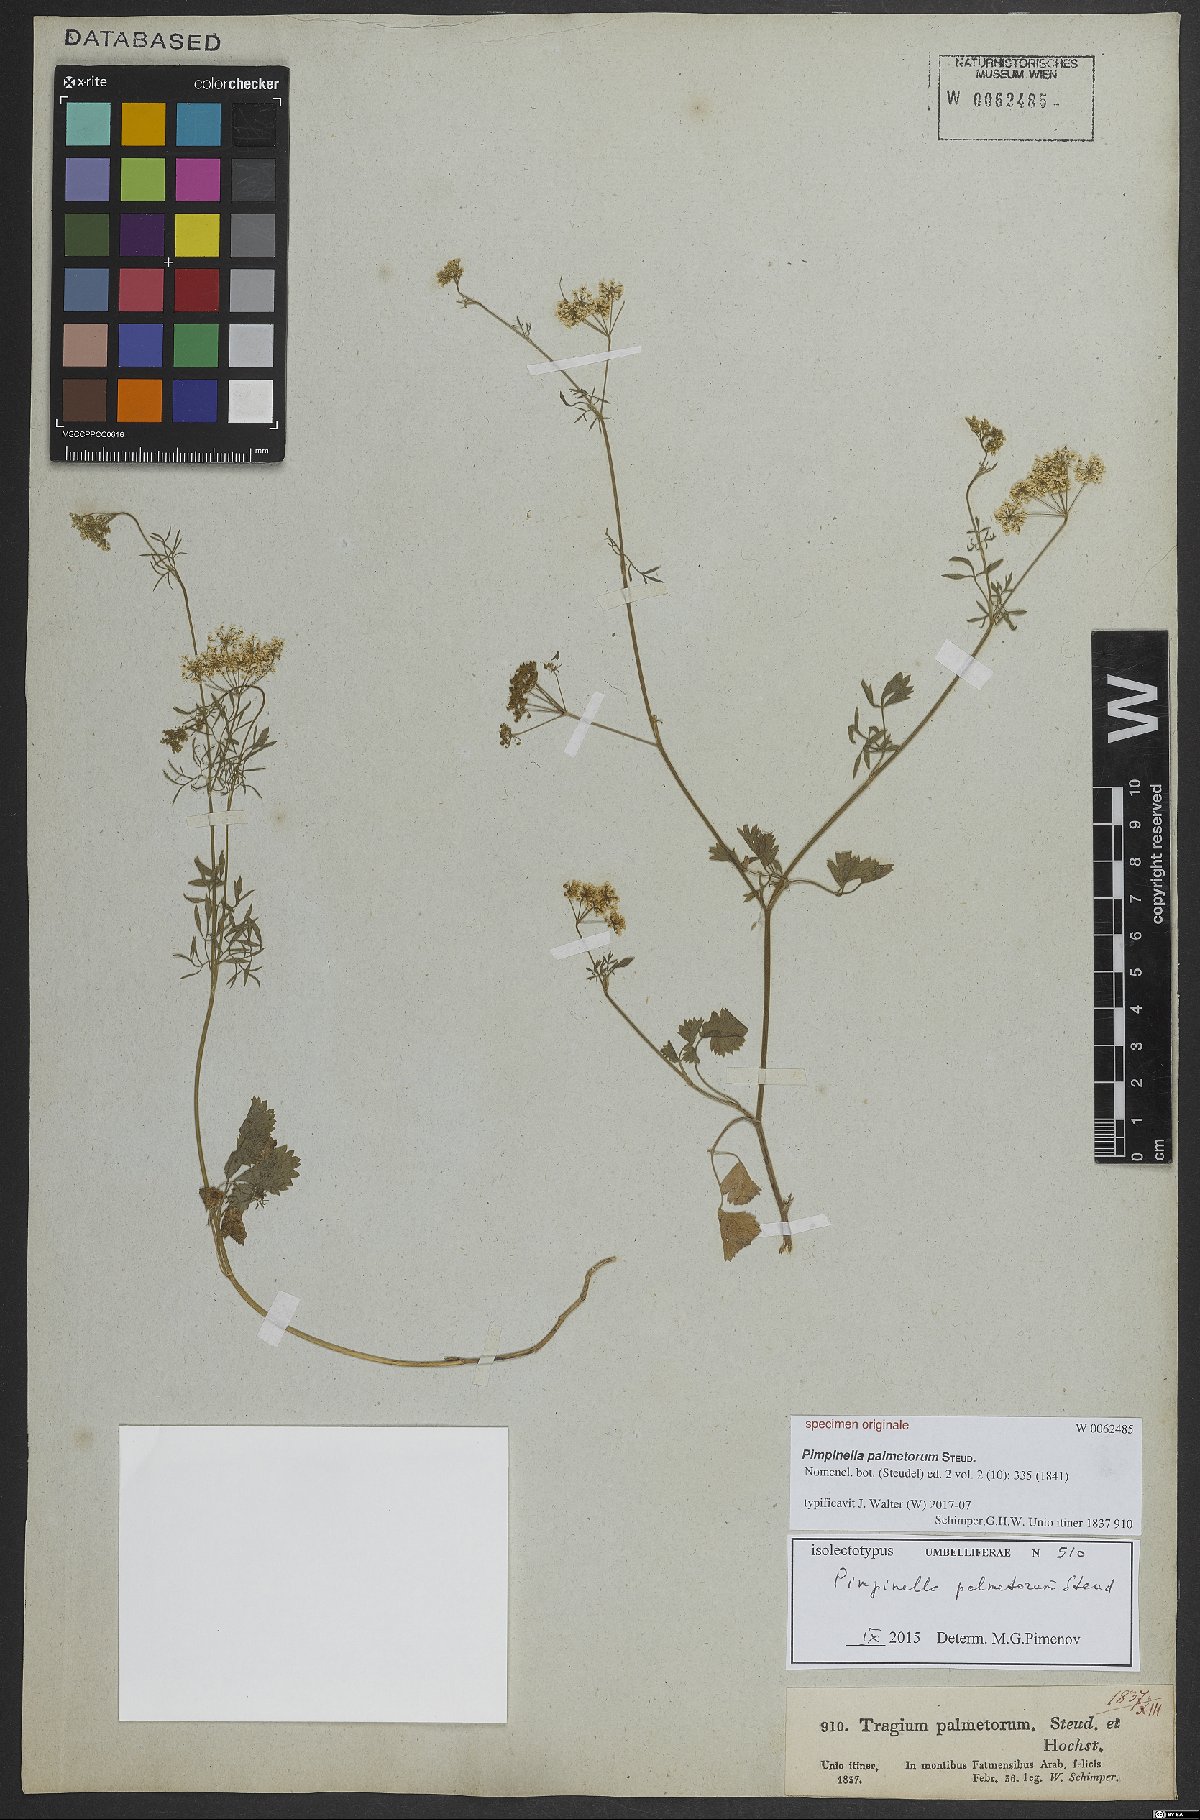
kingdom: Plantae
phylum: Tracheophyta
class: Magnoliopsida
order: Apiales
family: Apiaceae
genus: Pimpinella
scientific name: Pimpinella anisum
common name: Anise burnet saxifrage
